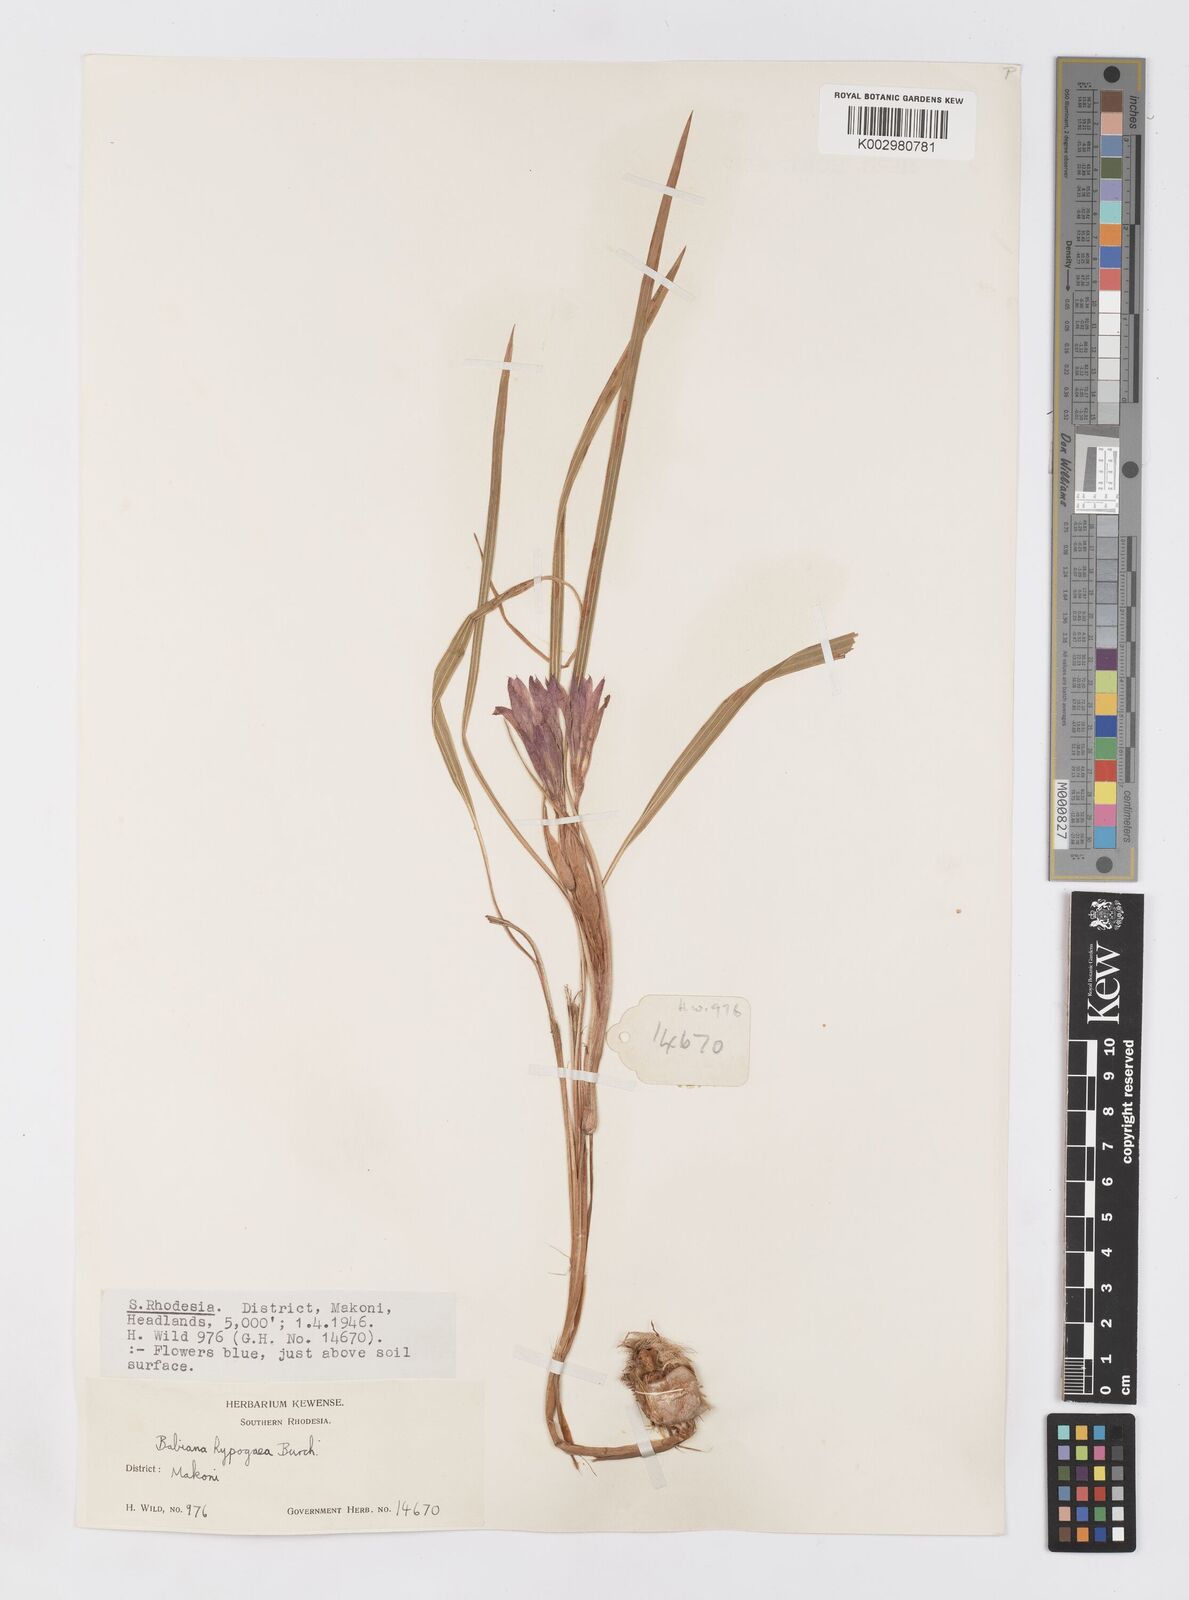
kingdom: Plantae
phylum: Tracheophyta
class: Liliopsida
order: Asparagales
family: Iridaceae
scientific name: Iridaceae
